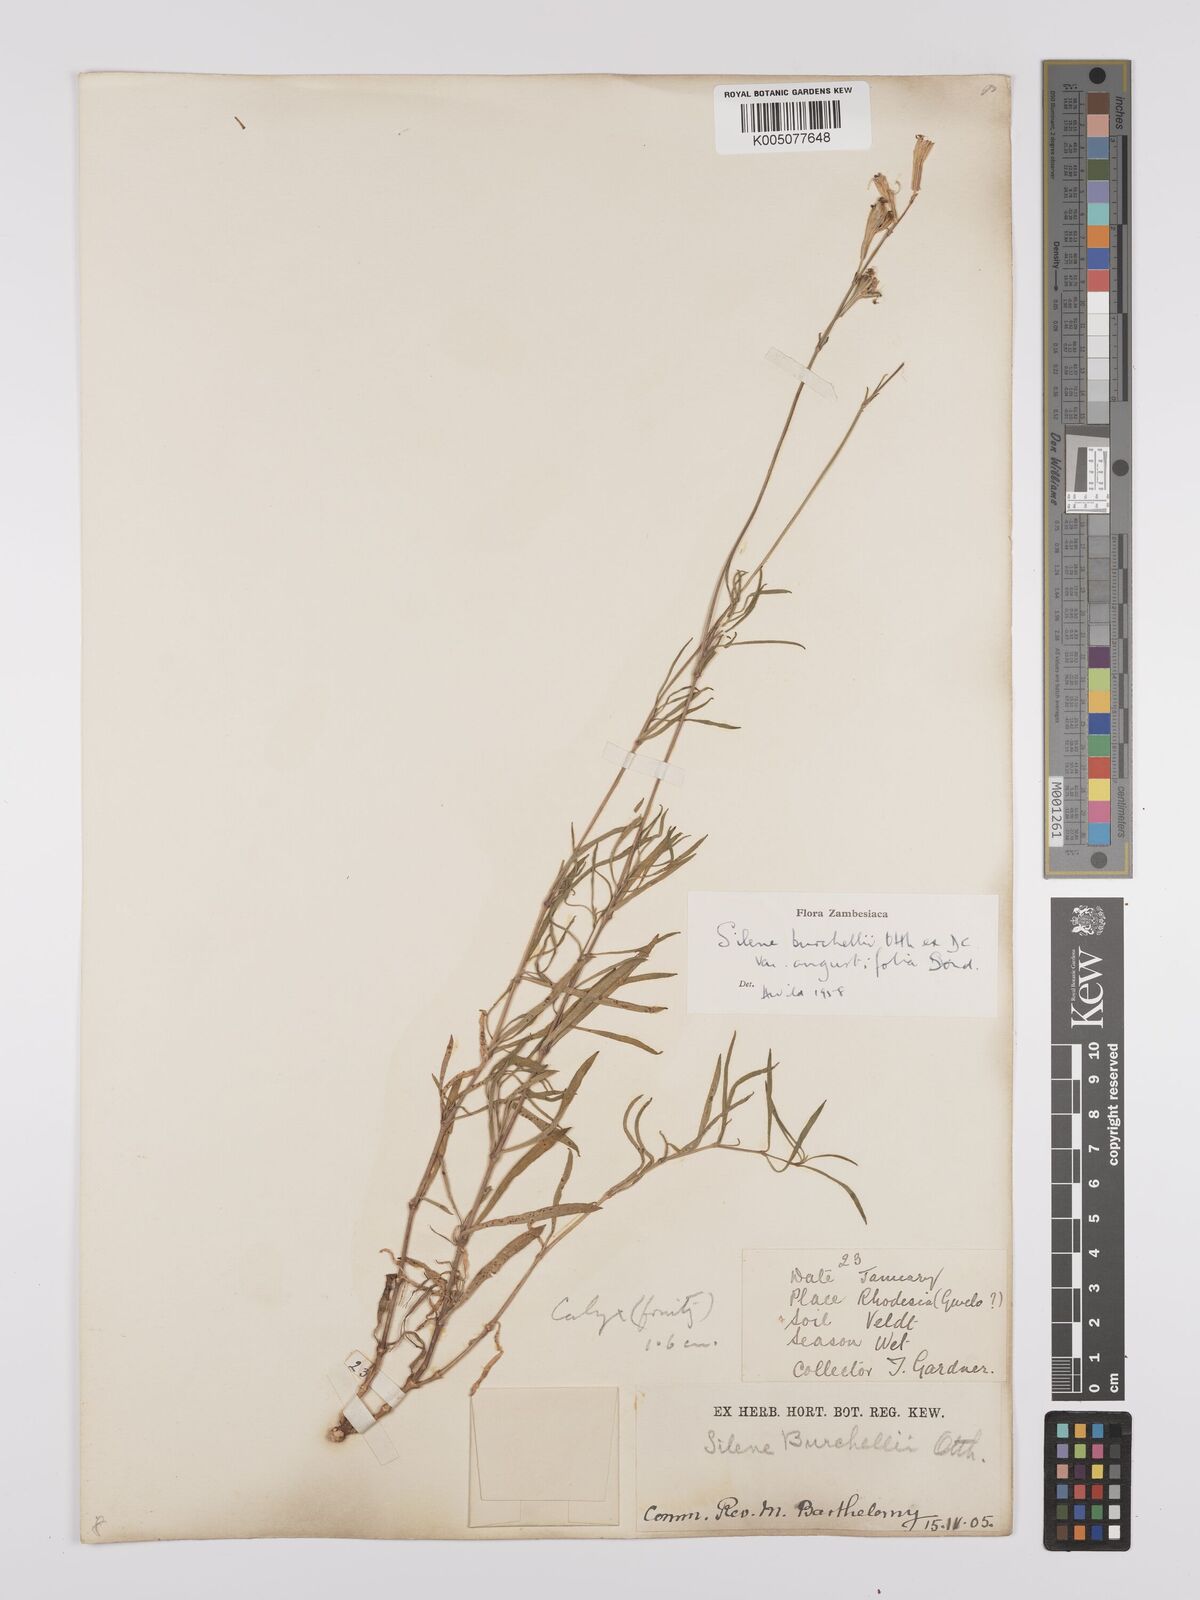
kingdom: Plantae
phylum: Tracheophyta
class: Magnoliopsida
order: Caryophyllales
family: Caryophyllaceae
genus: Silene
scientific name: Silene burchellii
